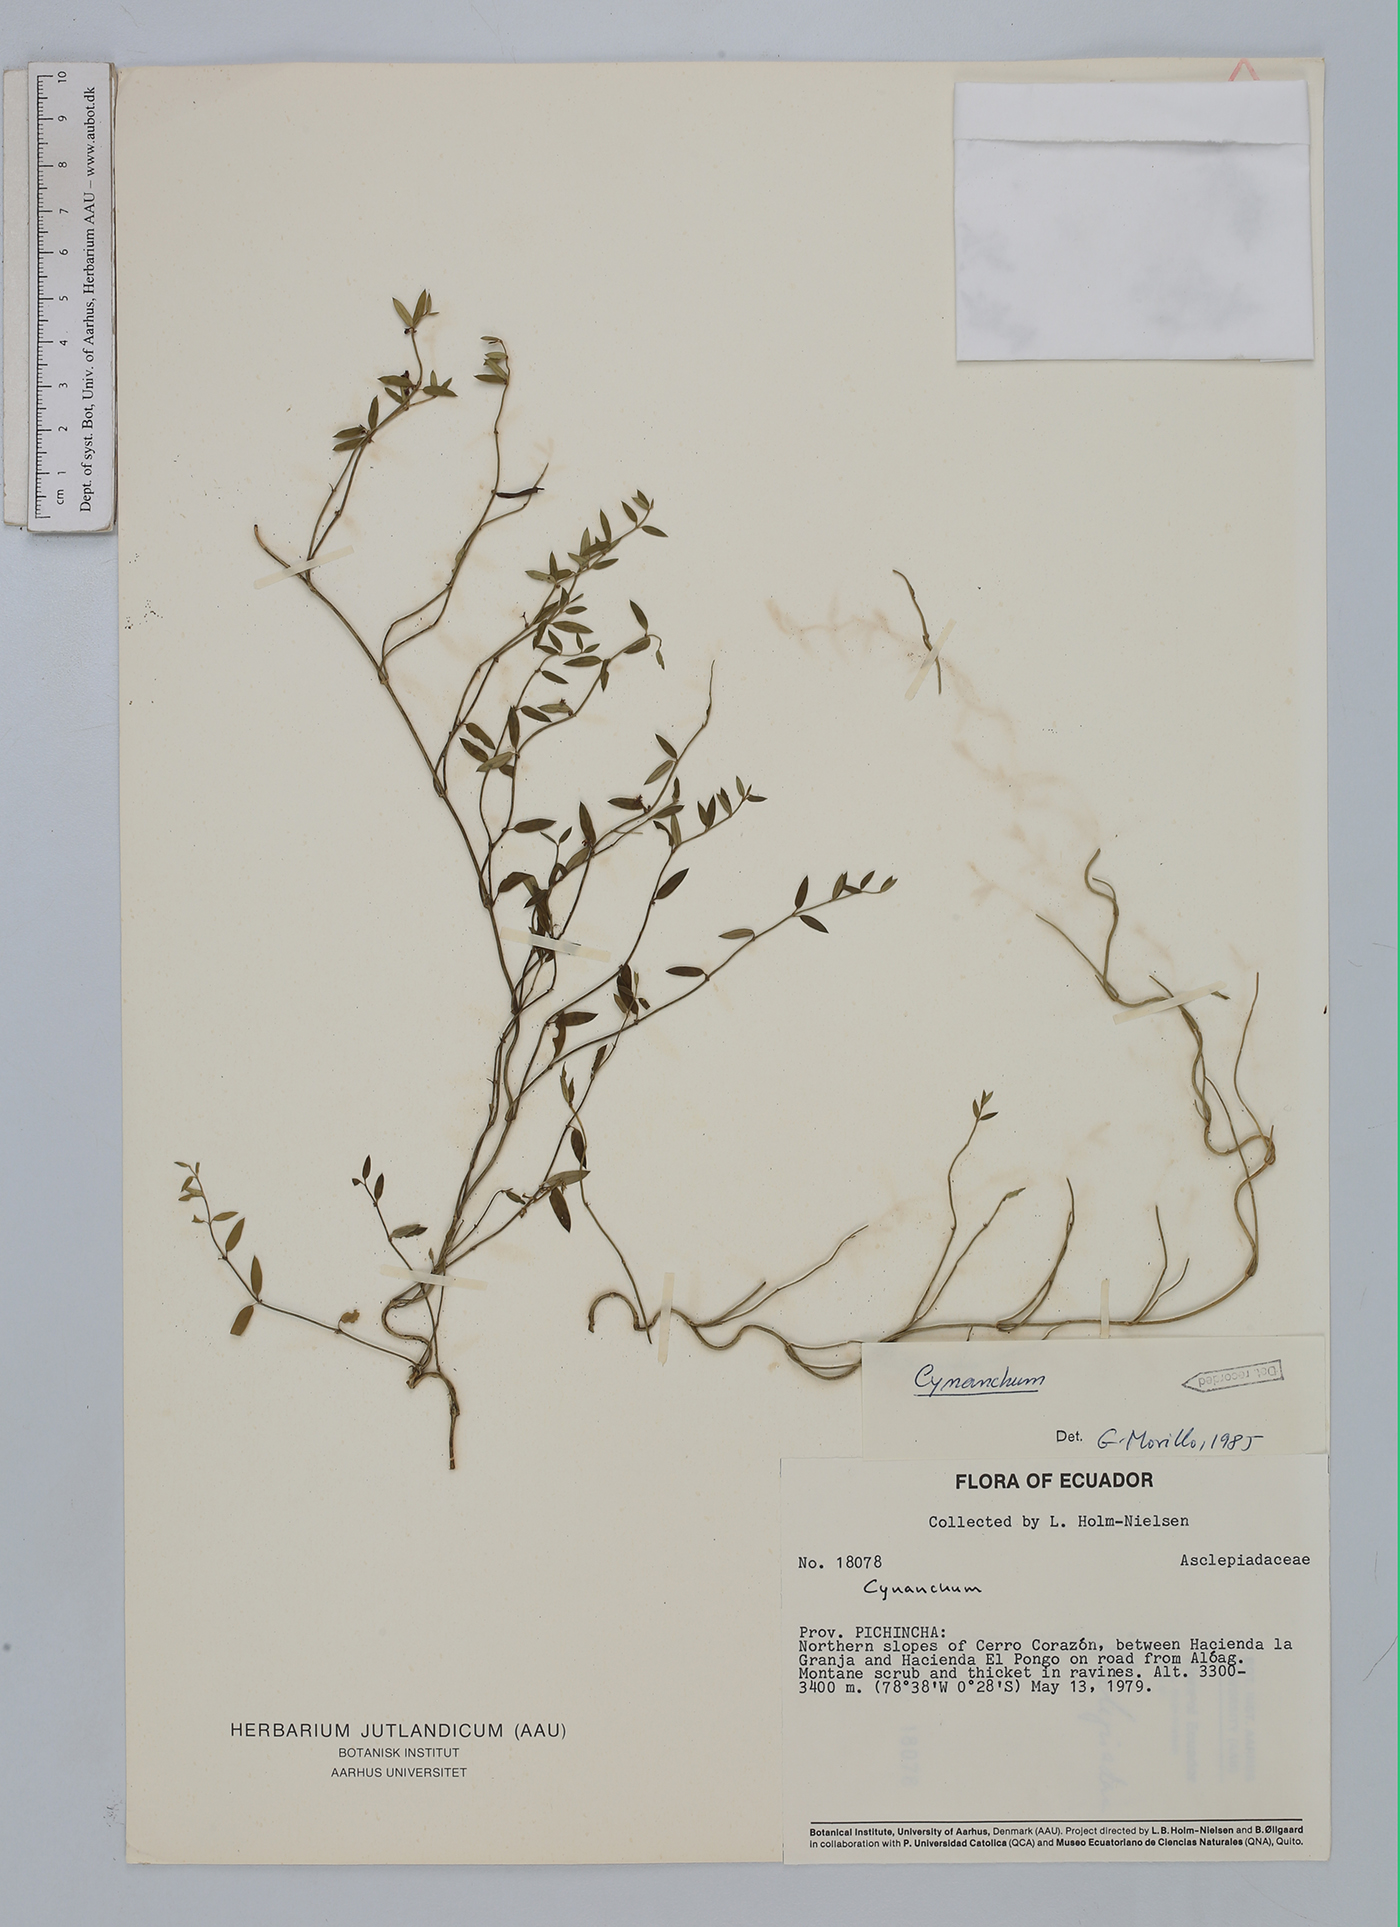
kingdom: Plantae
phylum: Tracheophyta
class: Magnoliopsida
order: Gentianales
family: Apocynaceae
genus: Cynanchum
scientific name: Cynanchum
